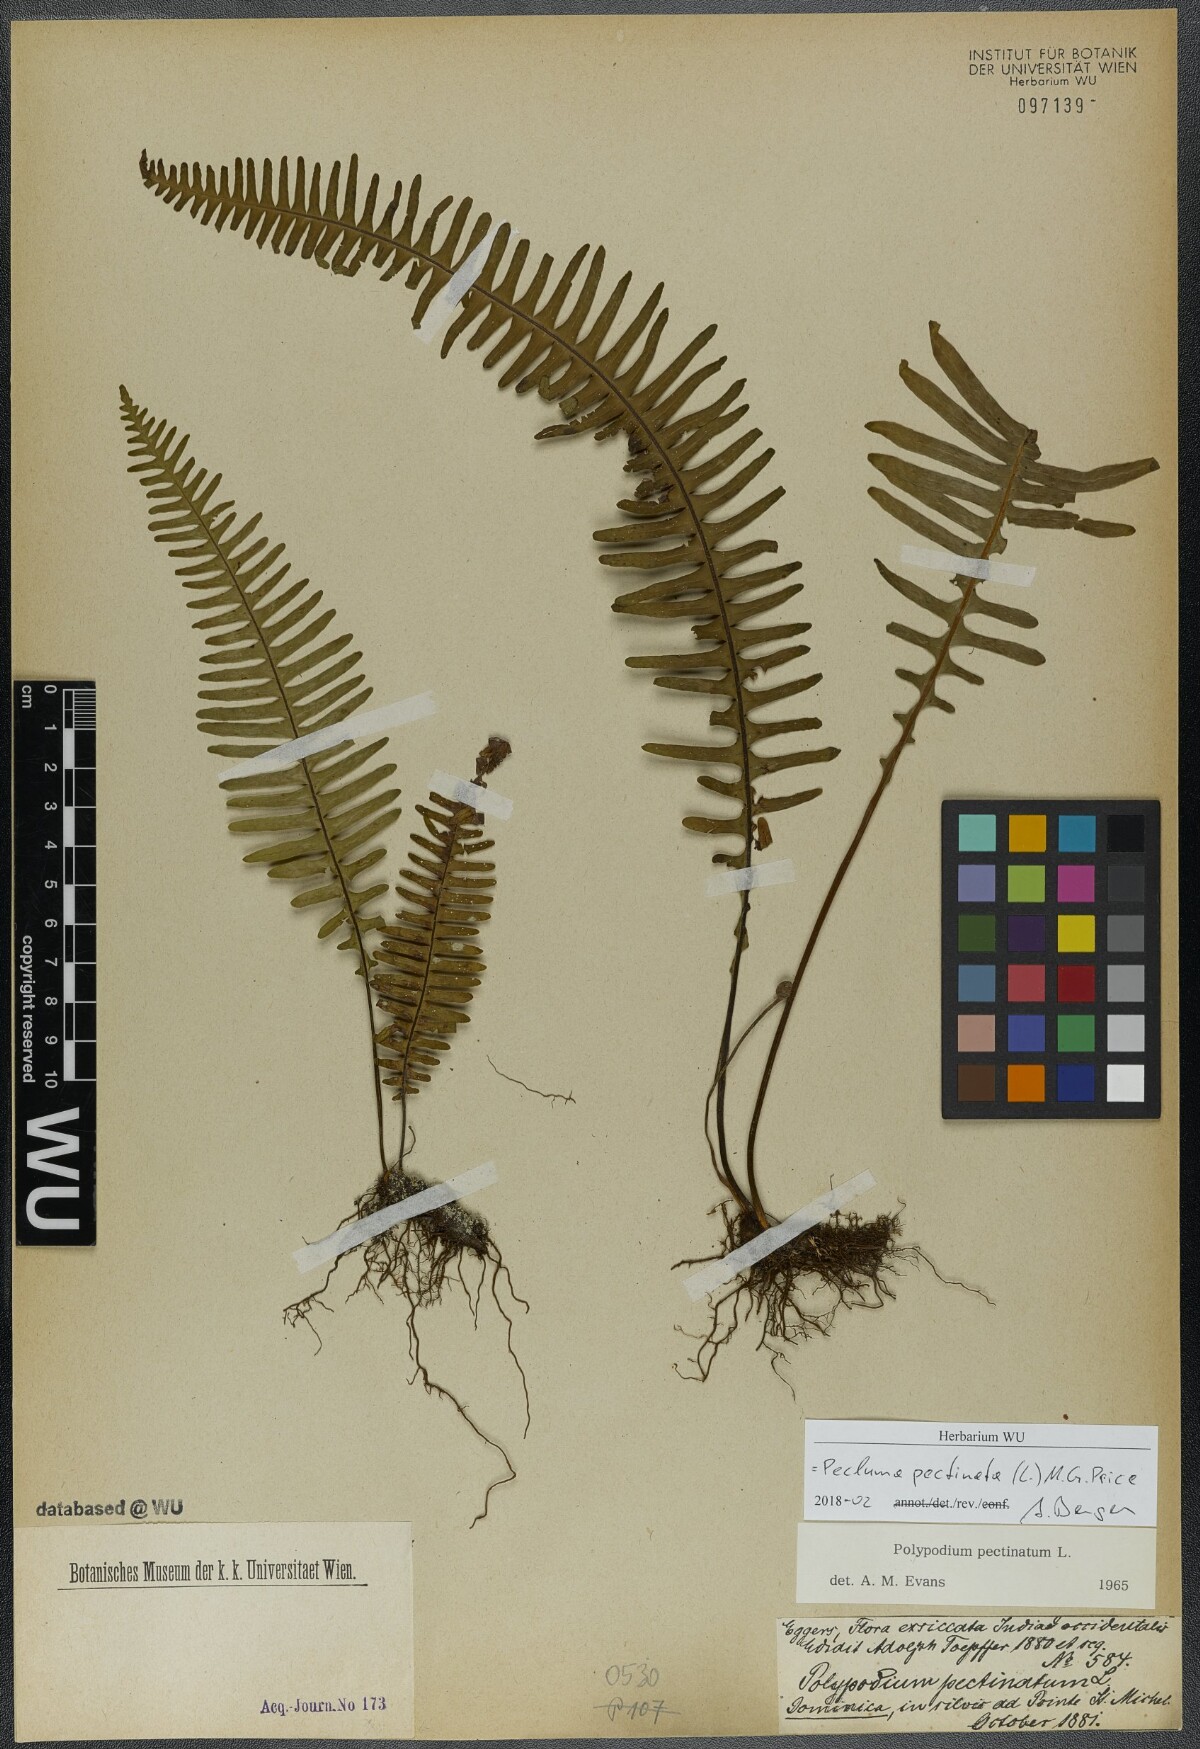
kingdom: Plantae
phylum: Tracheophyta
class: Polypodiopsida
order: Polypodiales
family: Polypodiaceae
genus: Pecluma
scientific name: Pecluma pectinata
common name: Msasa fern
